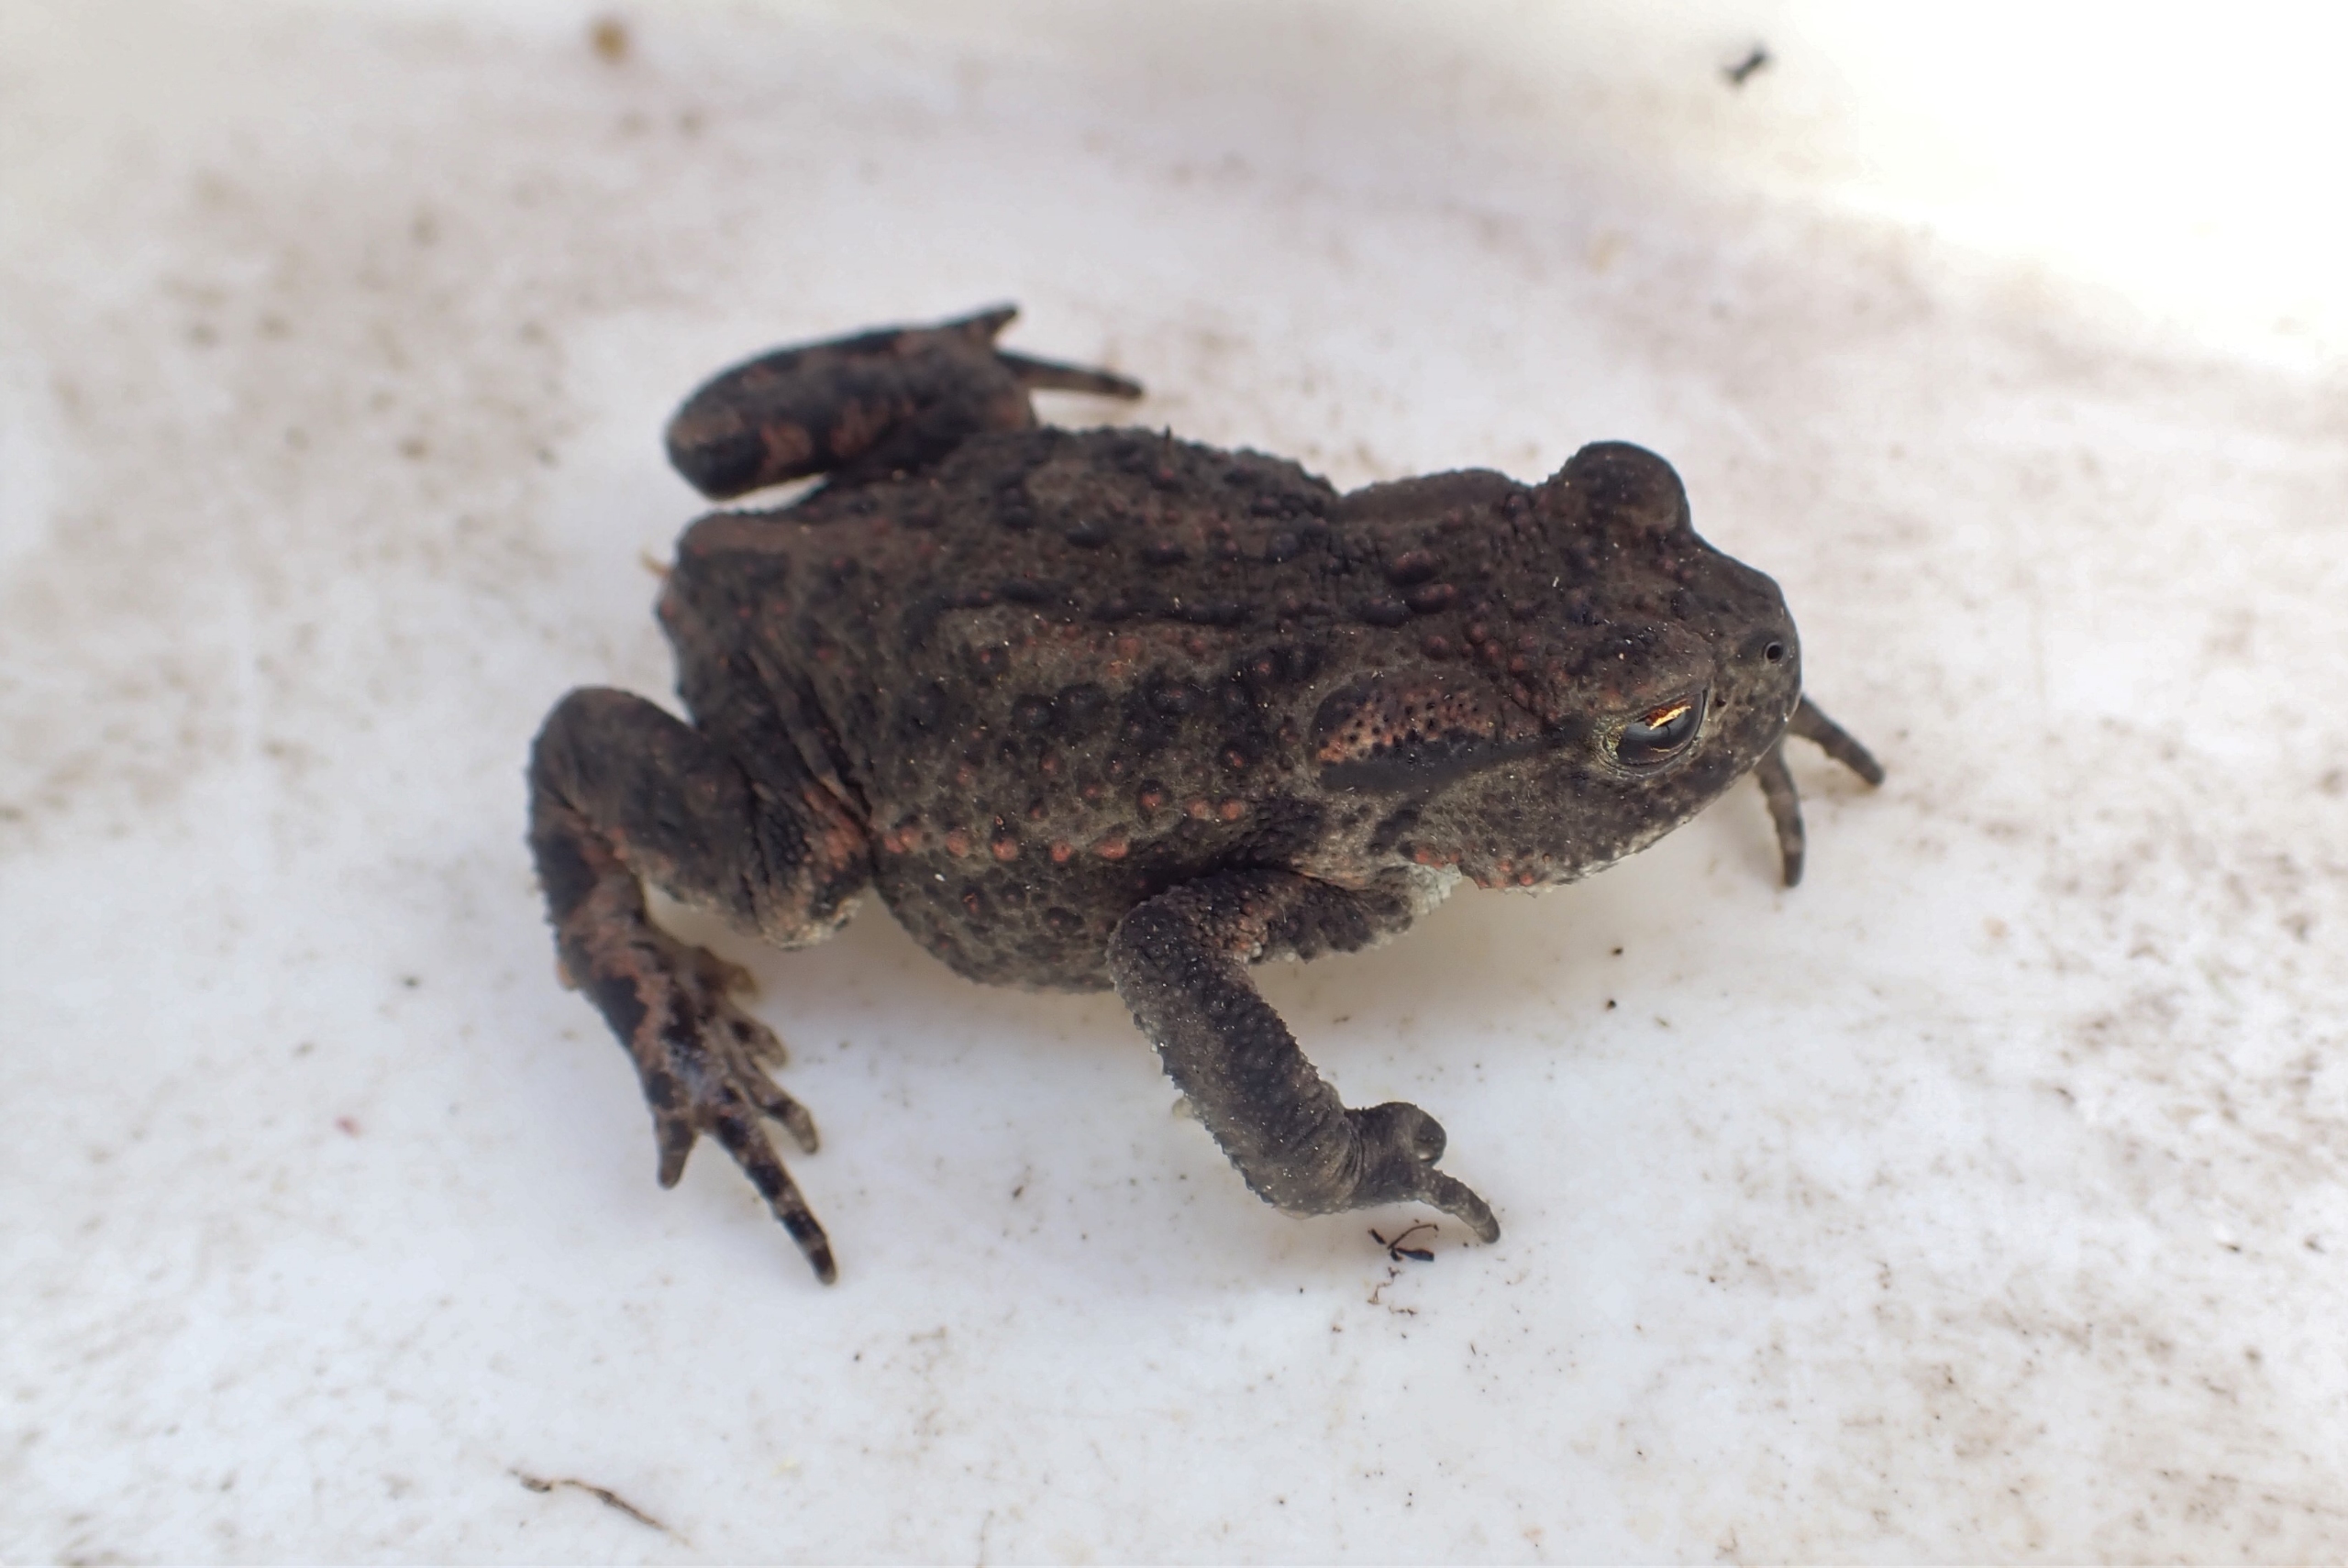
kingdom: Animalia
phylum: Chordata
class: Amphibia
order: Anura
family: Bufonidae
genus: Bufo
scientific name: Bufo bufo
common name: Skrubtudse
